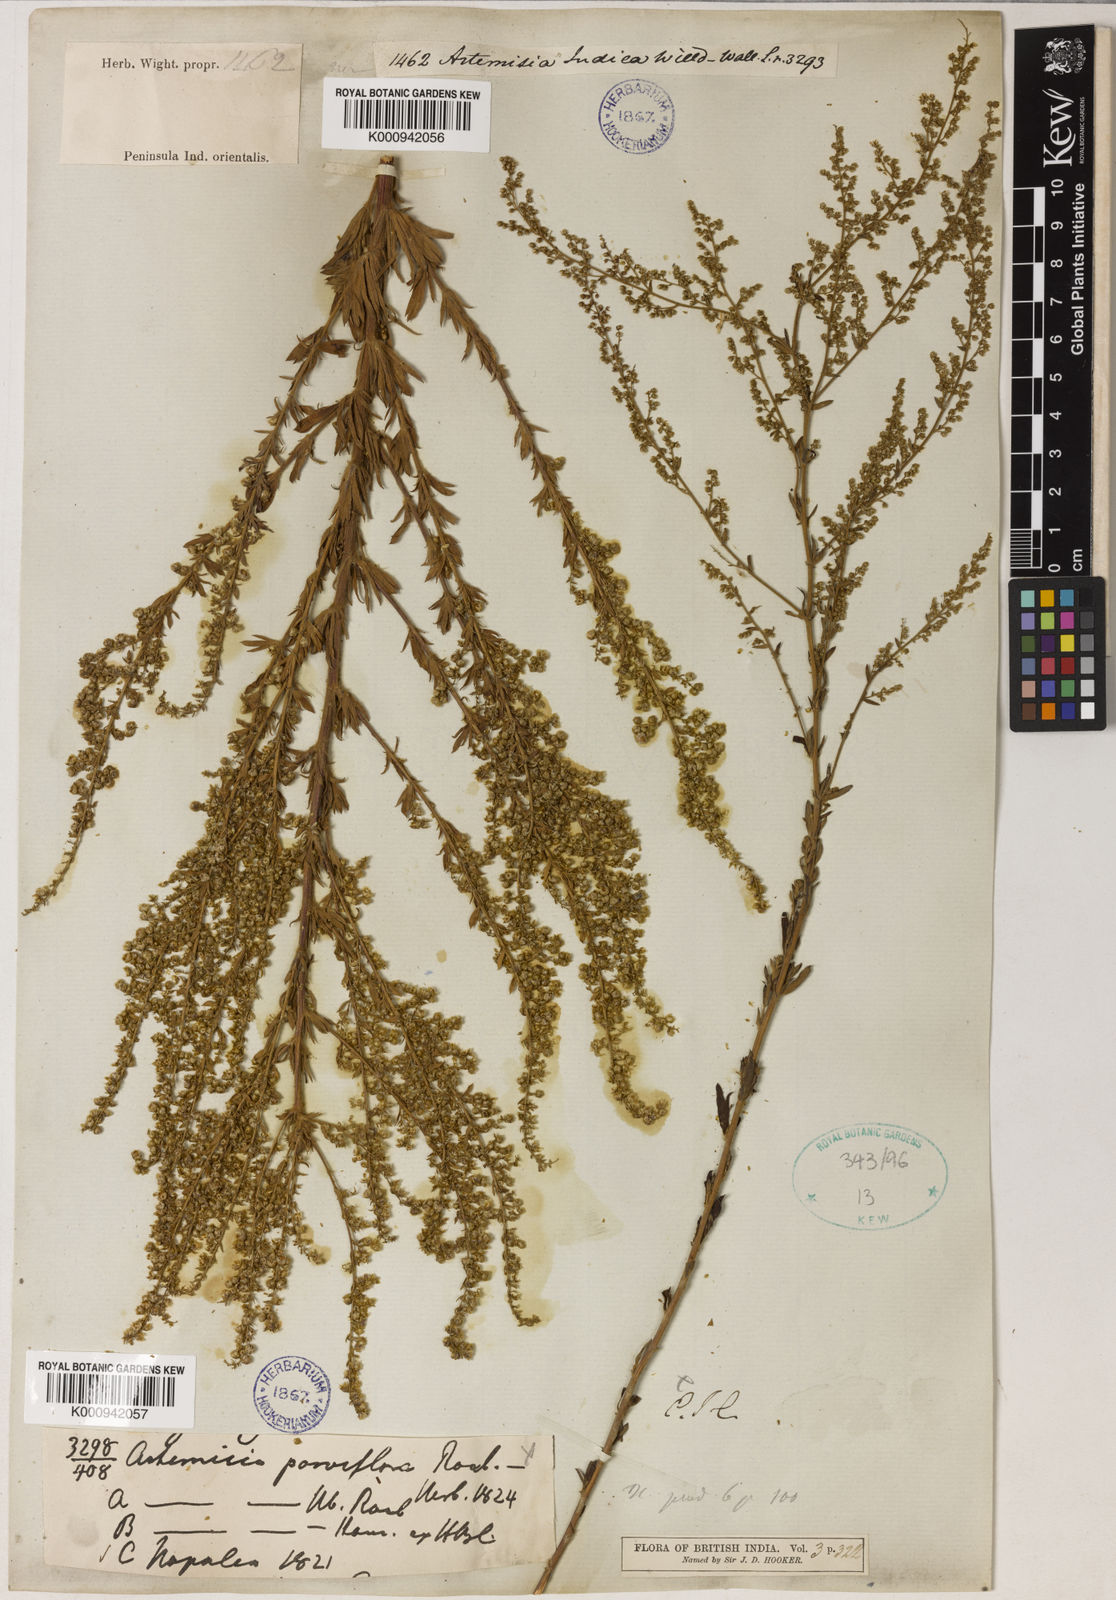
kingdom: Plantae
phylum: Tracheophyta
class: Magnoliopsida
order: Asterales
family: Asteraceae
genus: Artemisia
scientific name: Artemisia indica
